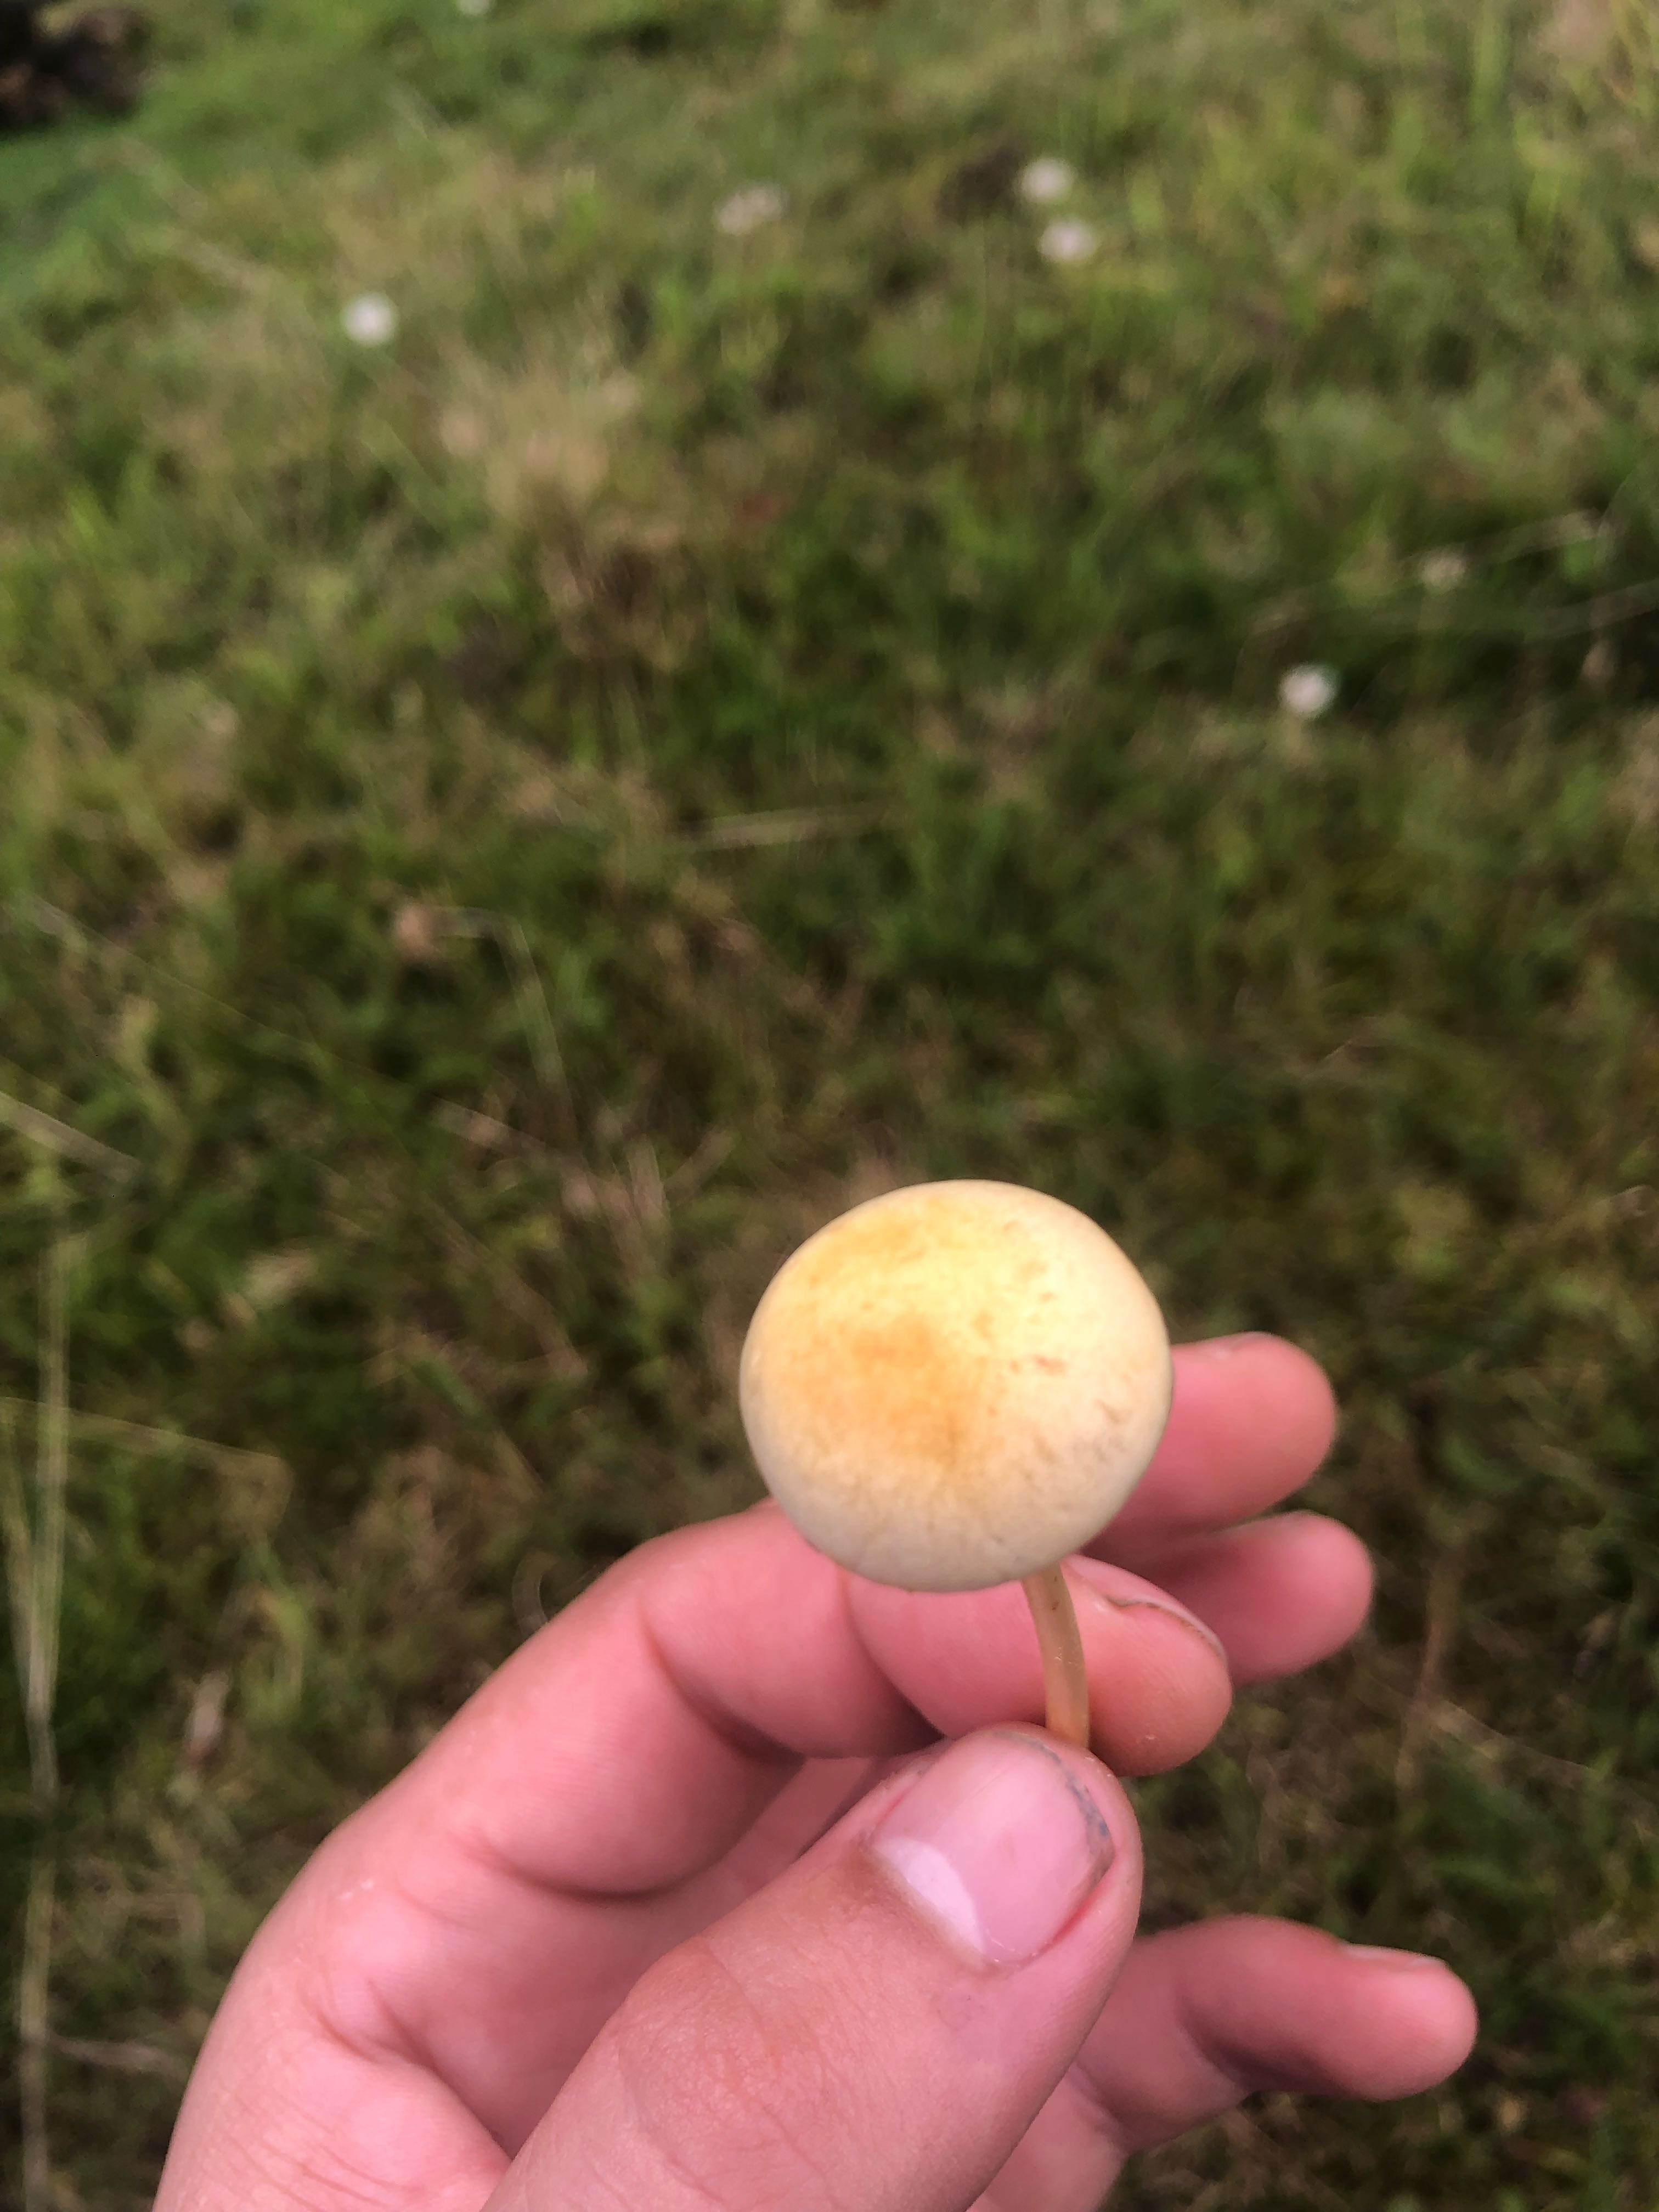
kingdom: Fungi
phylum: Basidiomycota
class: Agaricomycetes
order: Agaricales
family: Strophariaceae
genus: Protostropharia
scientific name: Protostropharia
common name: bredblad
